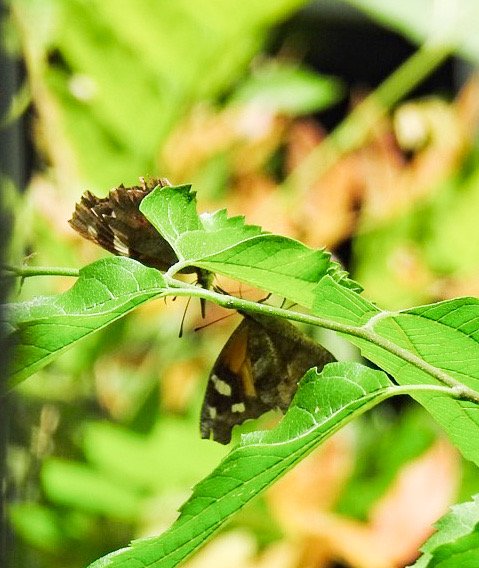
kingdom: Animalia
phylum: Arthropoda
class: Insecta
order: Lepidoptera
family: Nymphalidae
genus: Libytheana
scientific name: Libytheana carinenta
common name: American Snout
